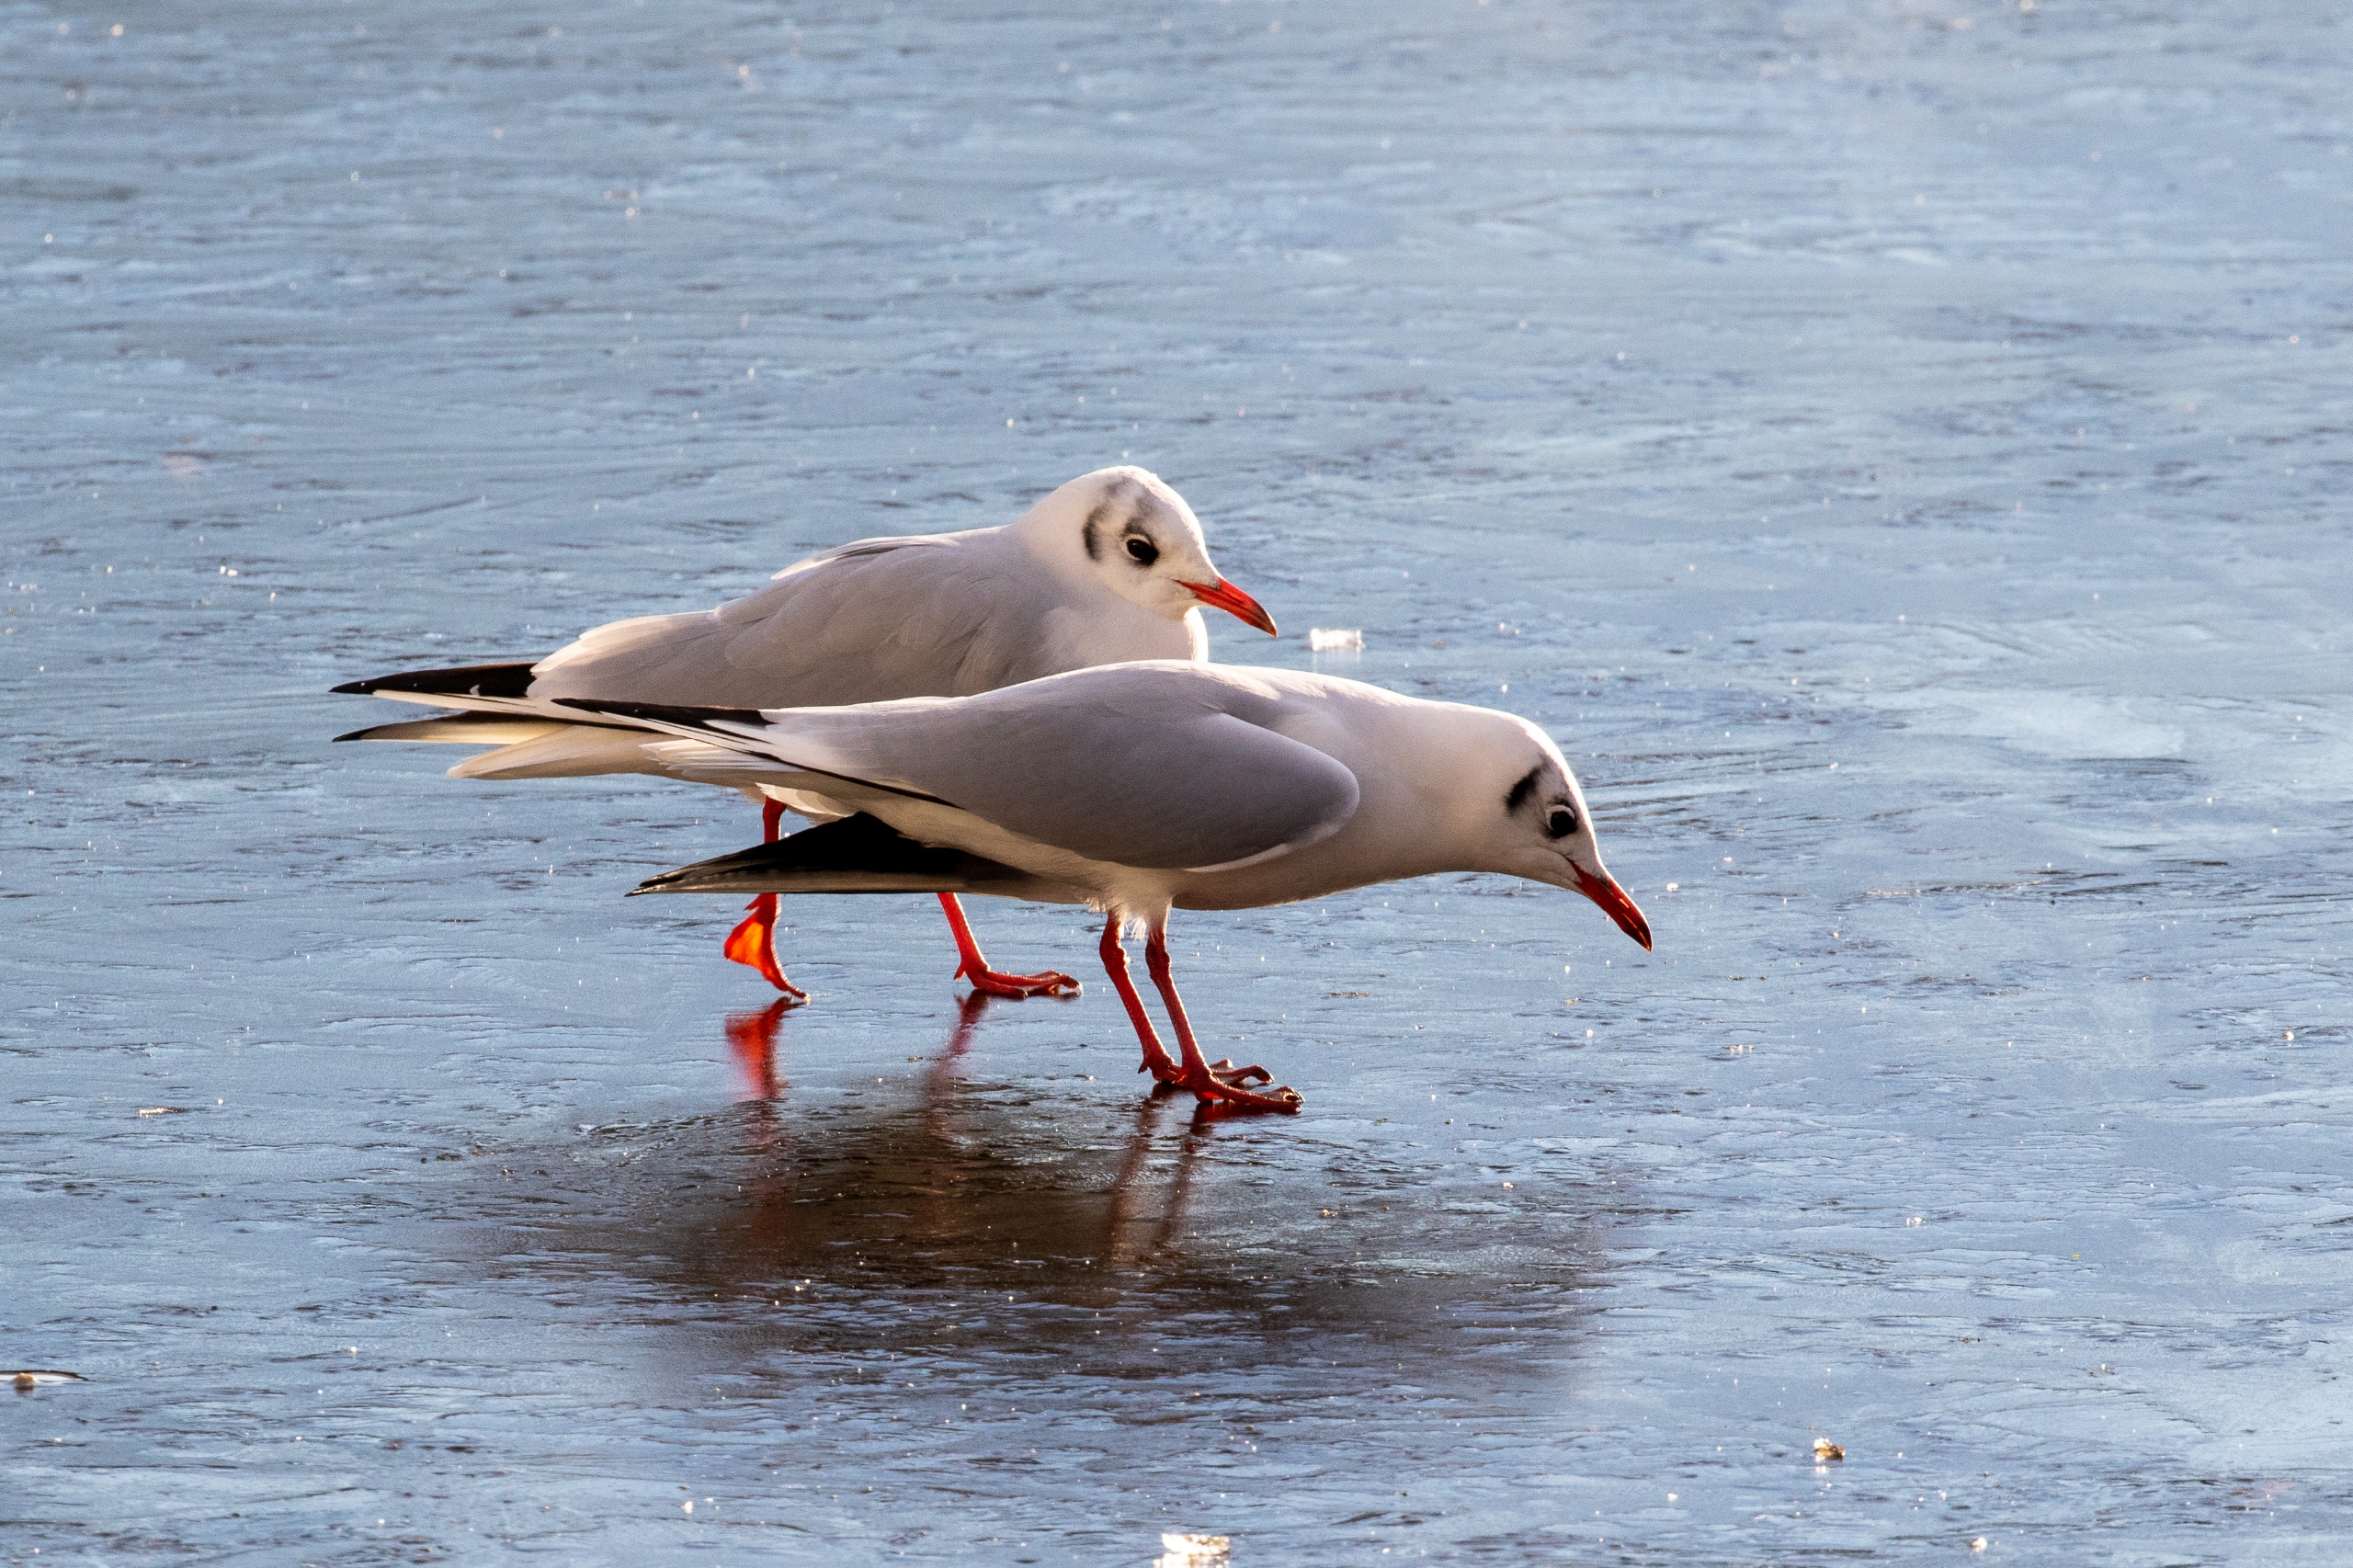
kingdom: Animalia
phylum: Chordata
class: Aves
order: Charadriiformes
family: Laridae
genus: Chroicocephalus
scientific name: Chroicocephalus ridibundus
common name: Hættemåge
